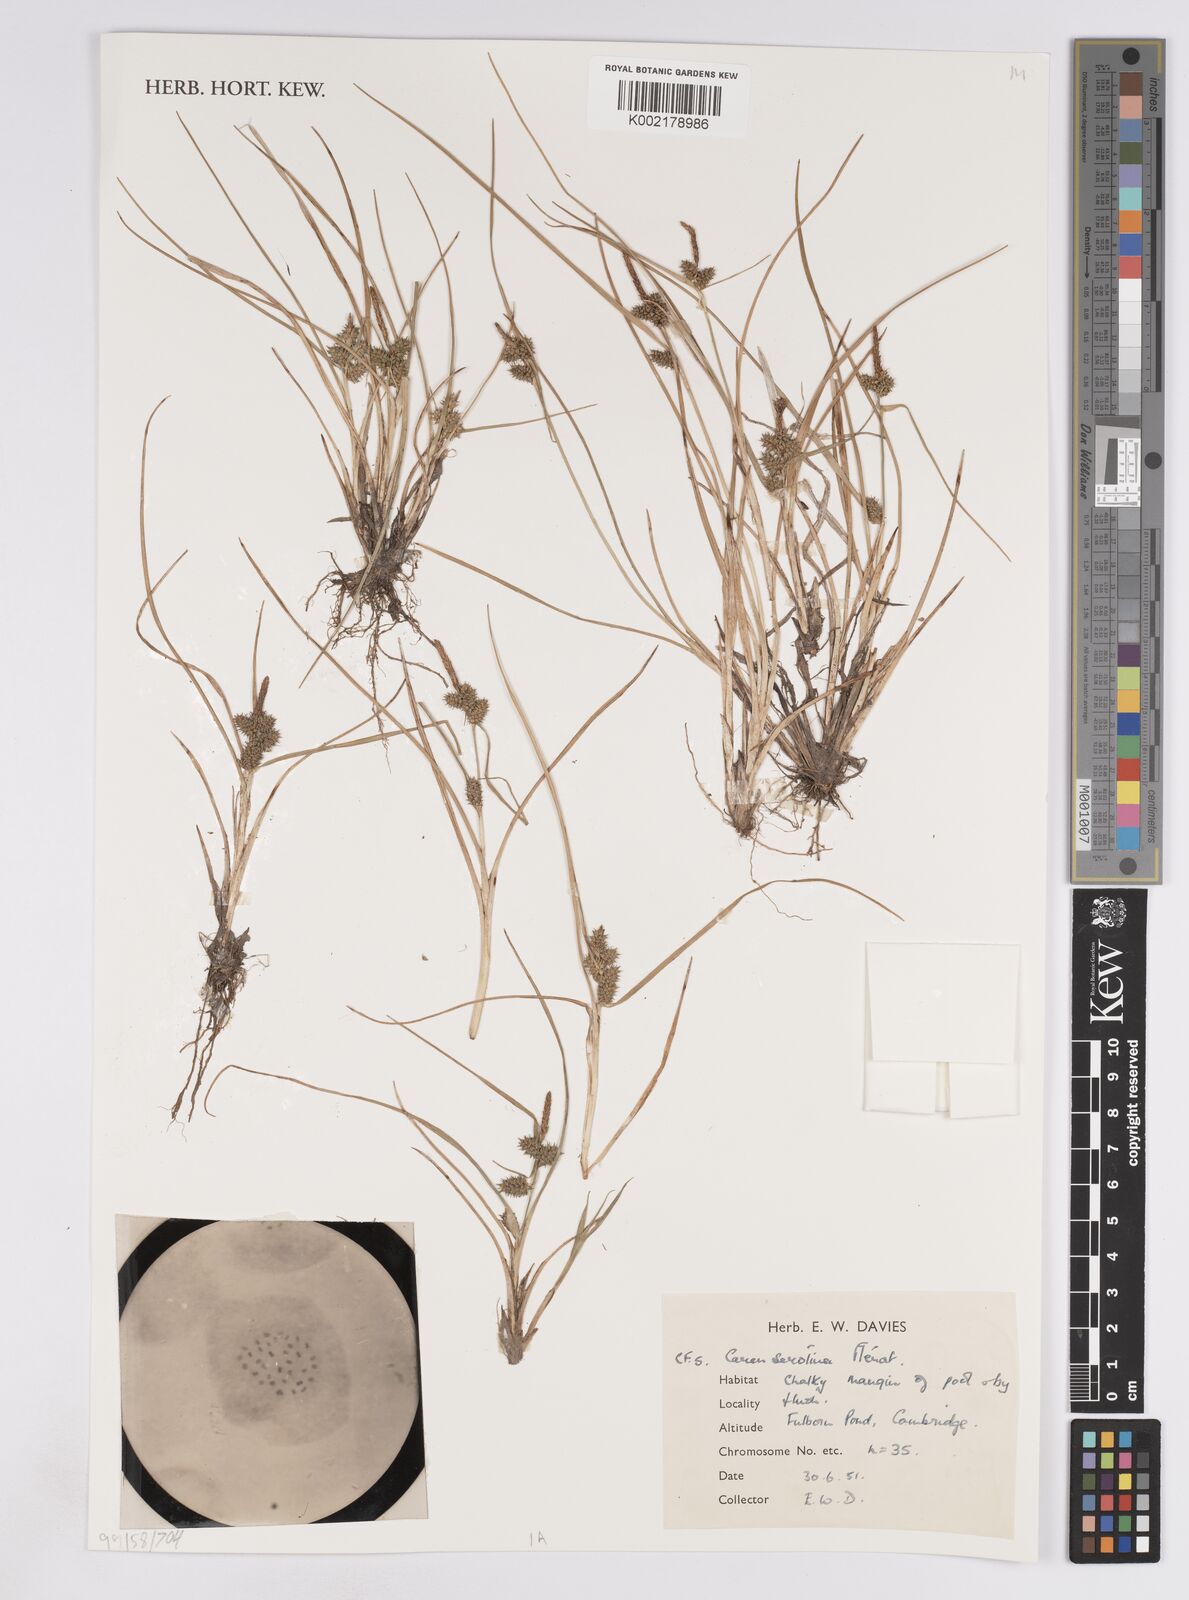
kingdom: Plantae
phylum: Tracheophyta
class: Liliopsida
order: Poales
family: Cyperaceae
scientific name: Cyperaceae
